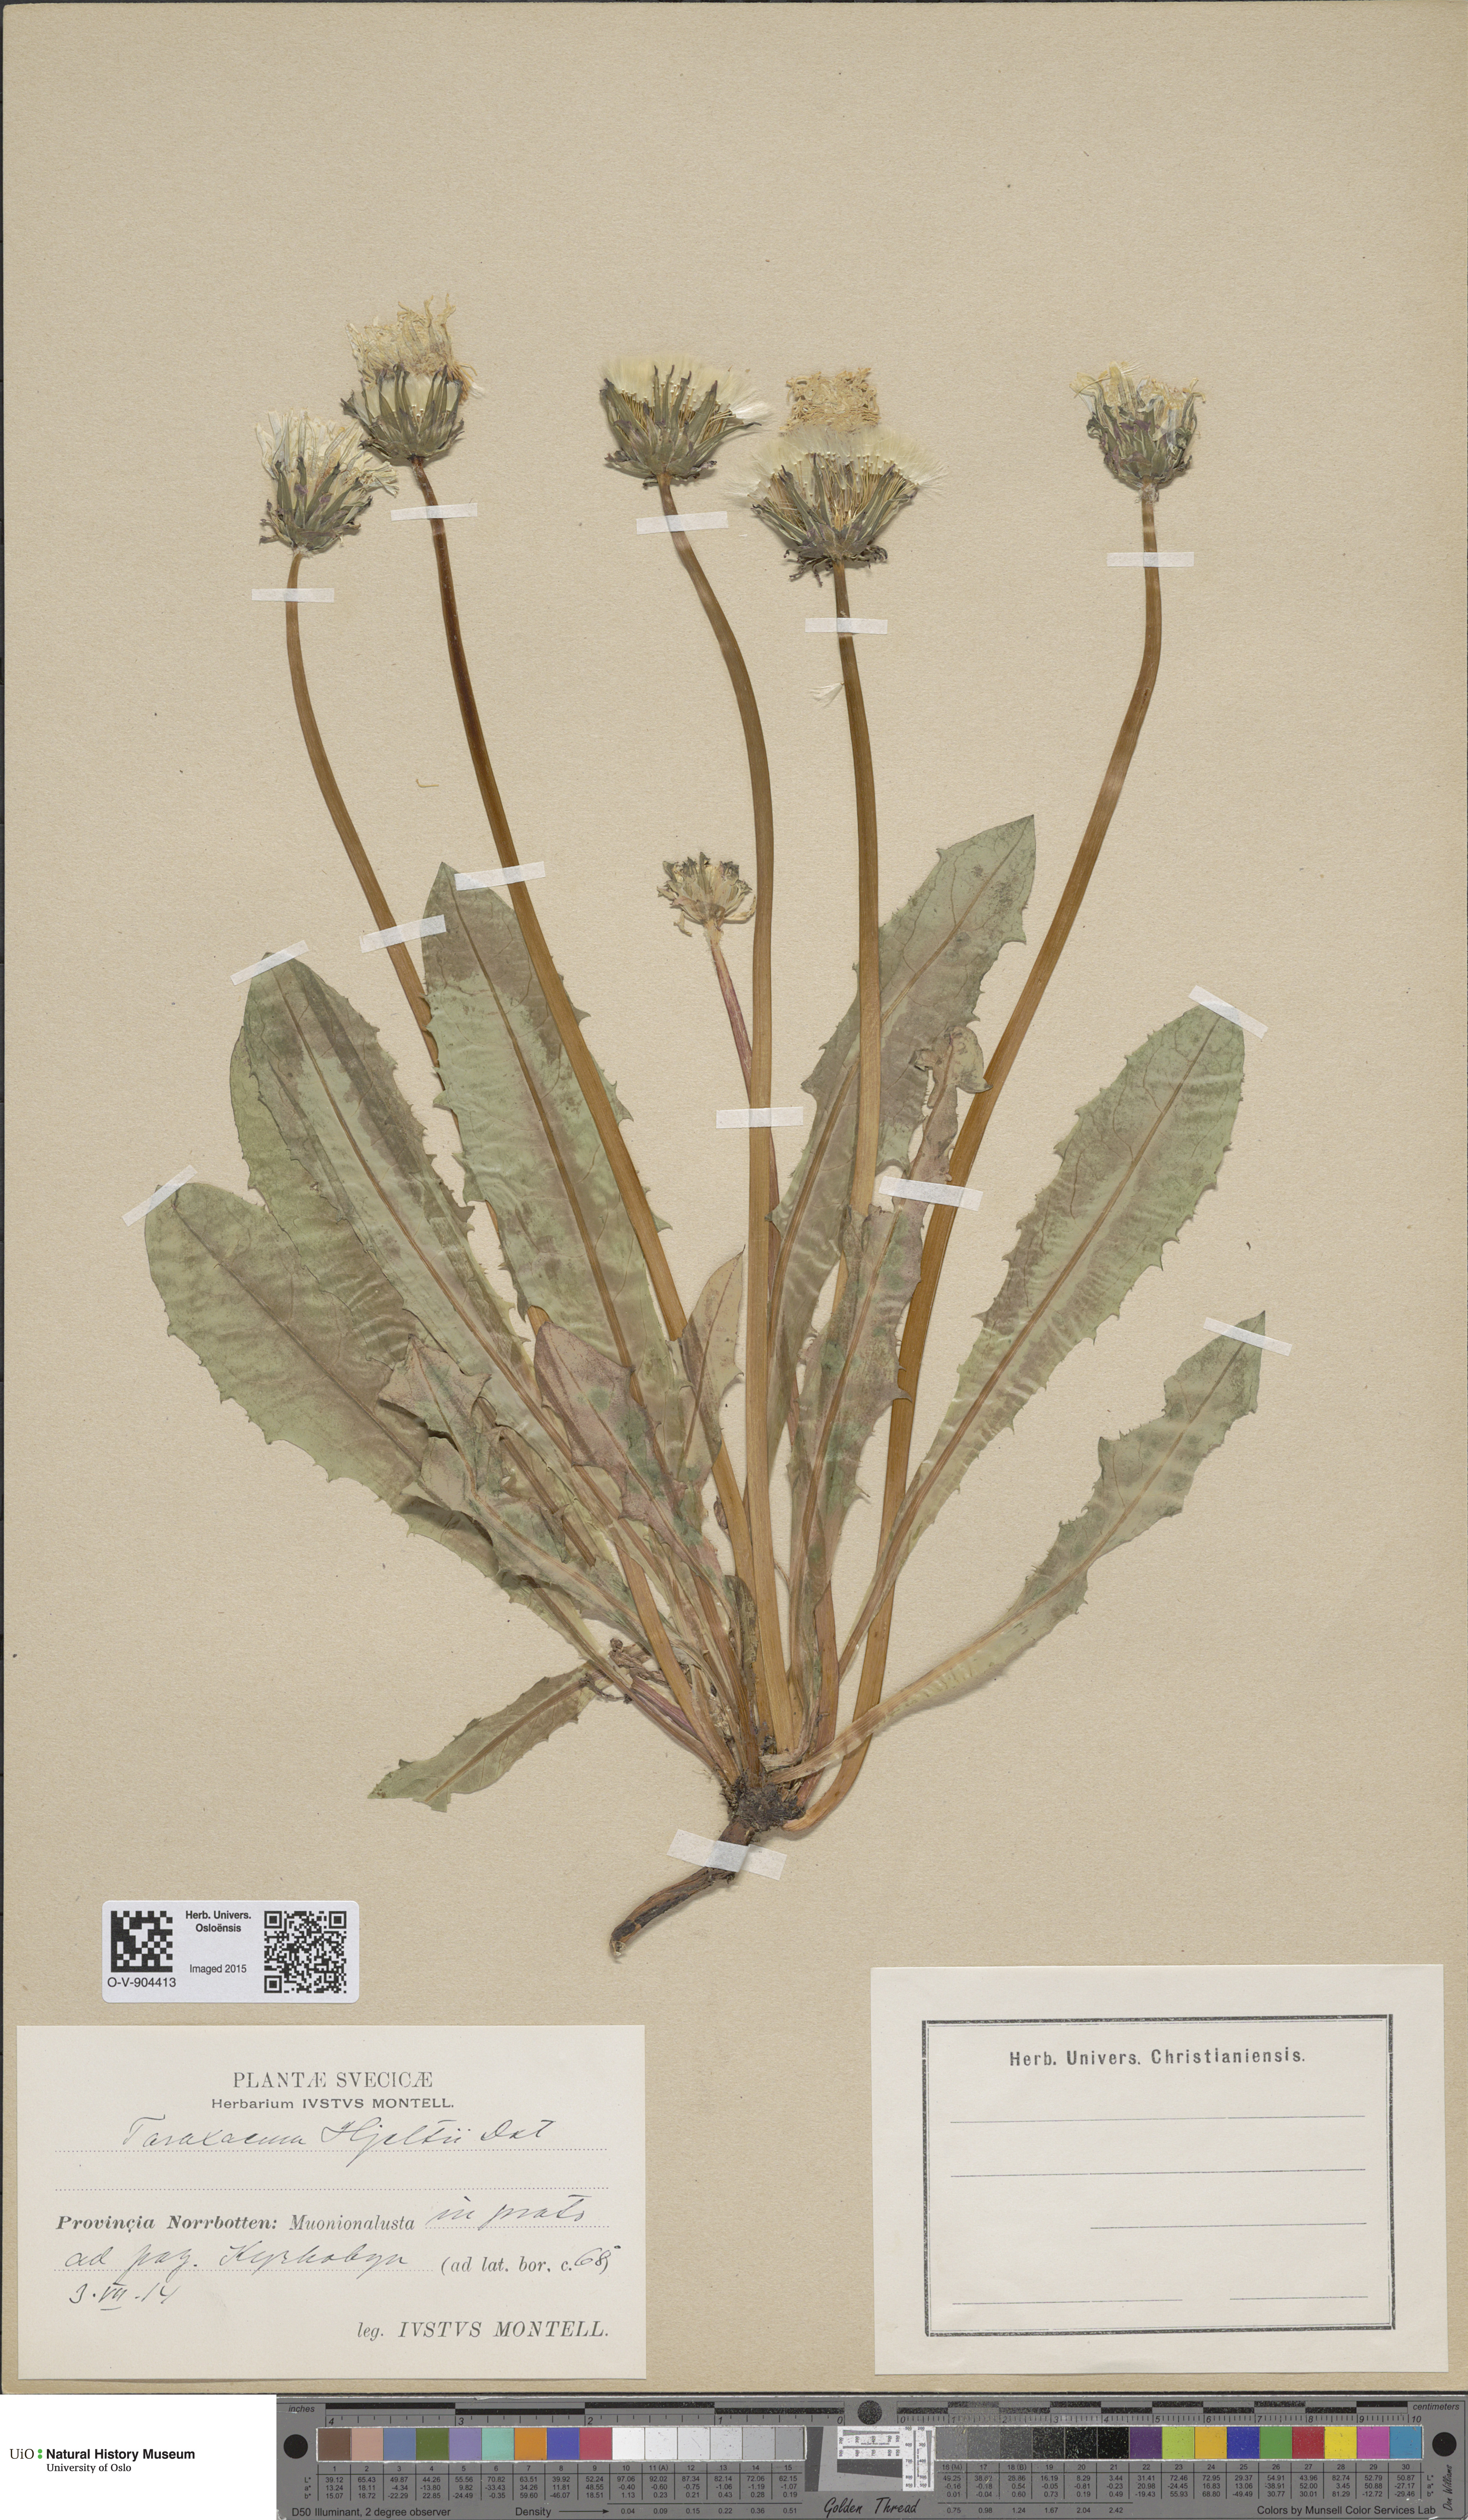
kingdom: Plantae
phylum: Tracheophyta
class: Magnoliopsida
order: Asterales
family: Asteraceae
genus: Taraxacum
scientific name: Taraxacum hjeltii
